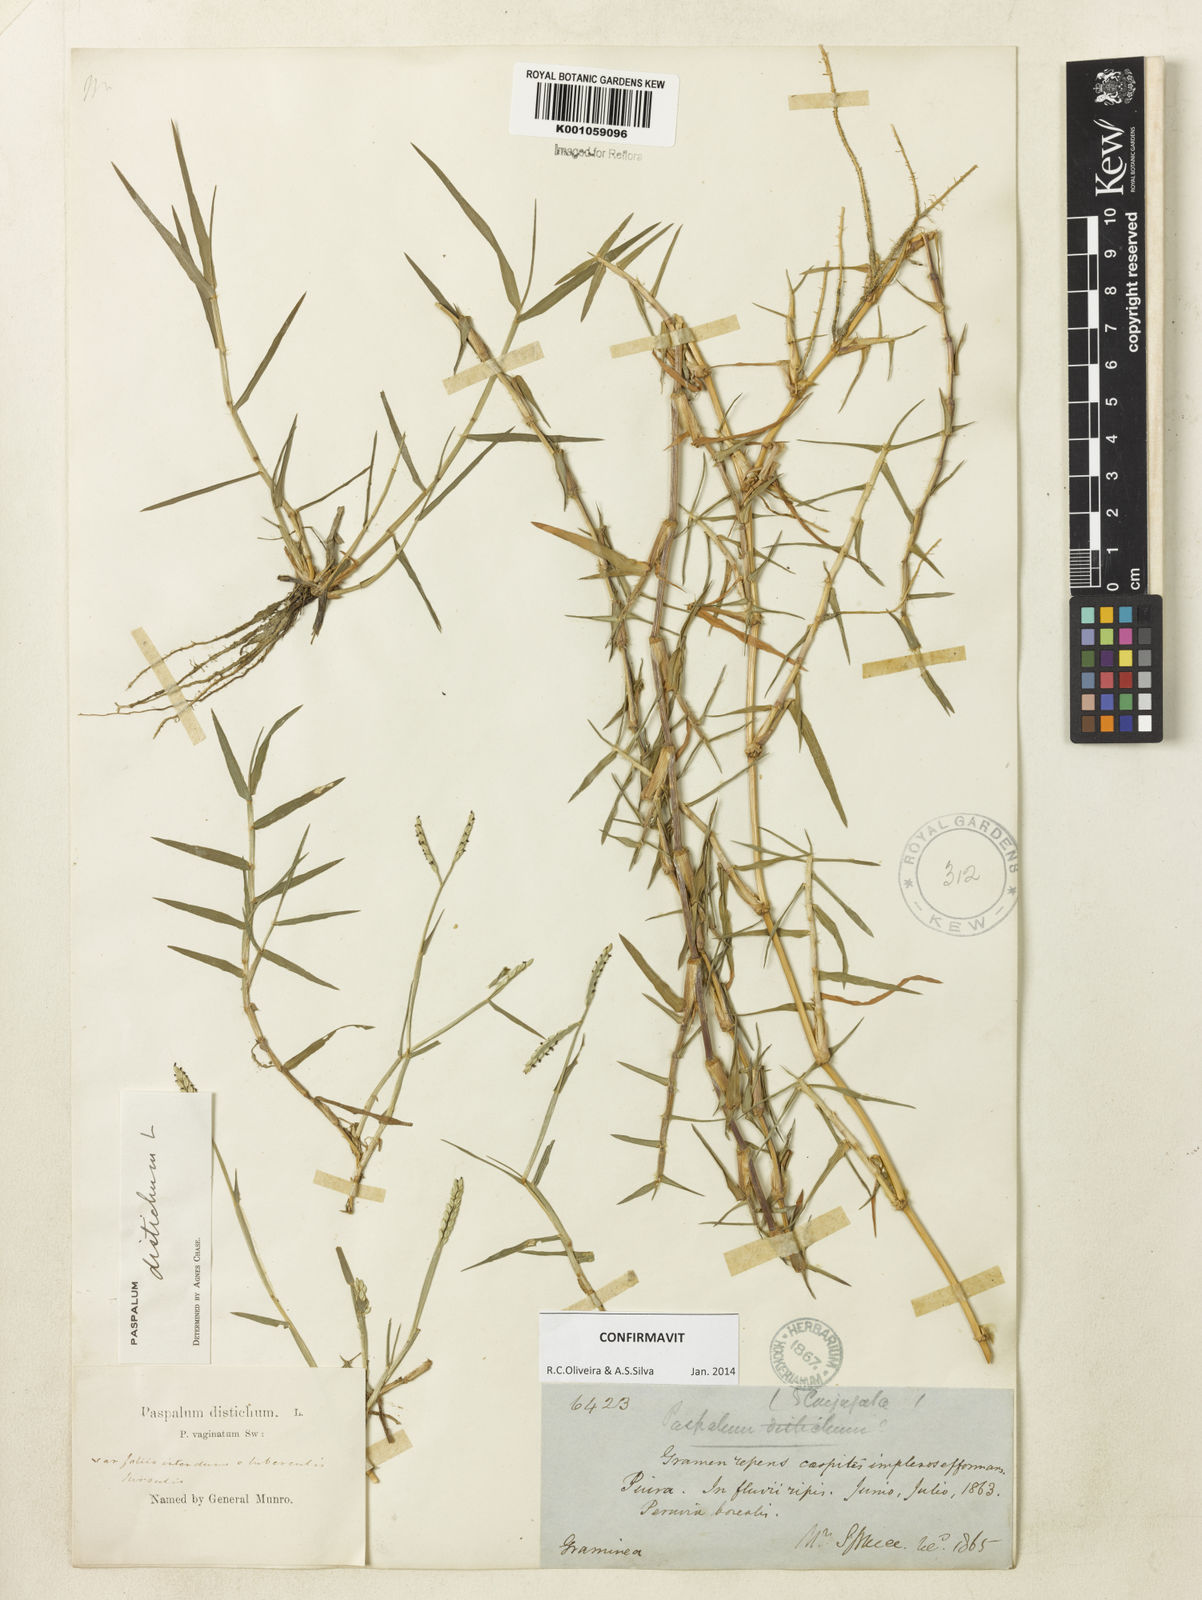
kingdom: Plantae
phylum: Tracheophyta
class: Liliopsida
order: Poales
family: Poaceae
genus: Paspalum
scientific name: Paspalum distichum
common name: Knotgrass
